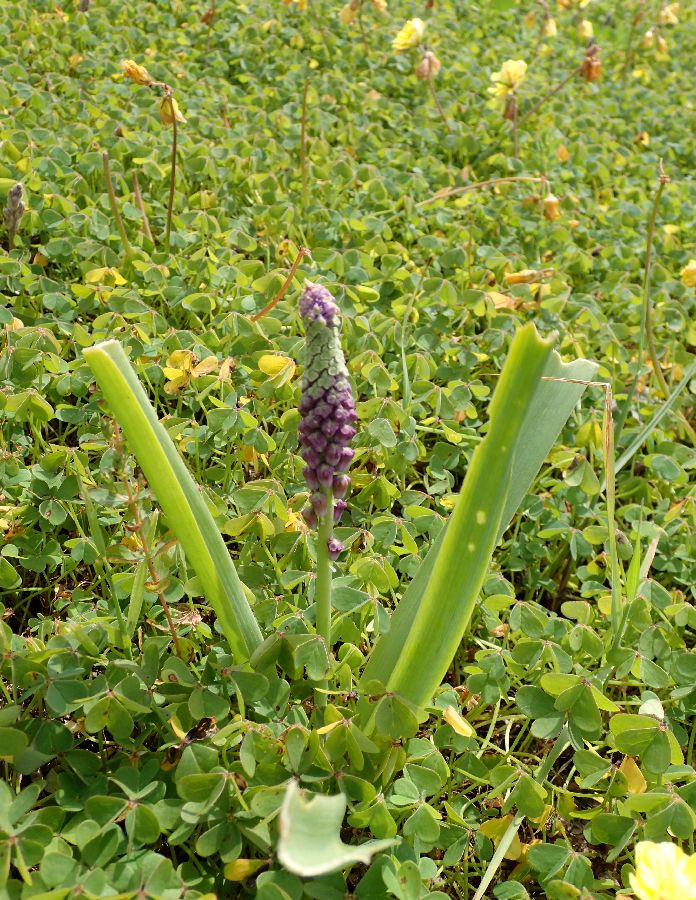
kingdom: Plantae
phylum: Tracheophyta
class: Liliopsida
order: Asparagales
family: Asparagaceae
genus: Bellevalia
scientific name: Bellevalia dubia
